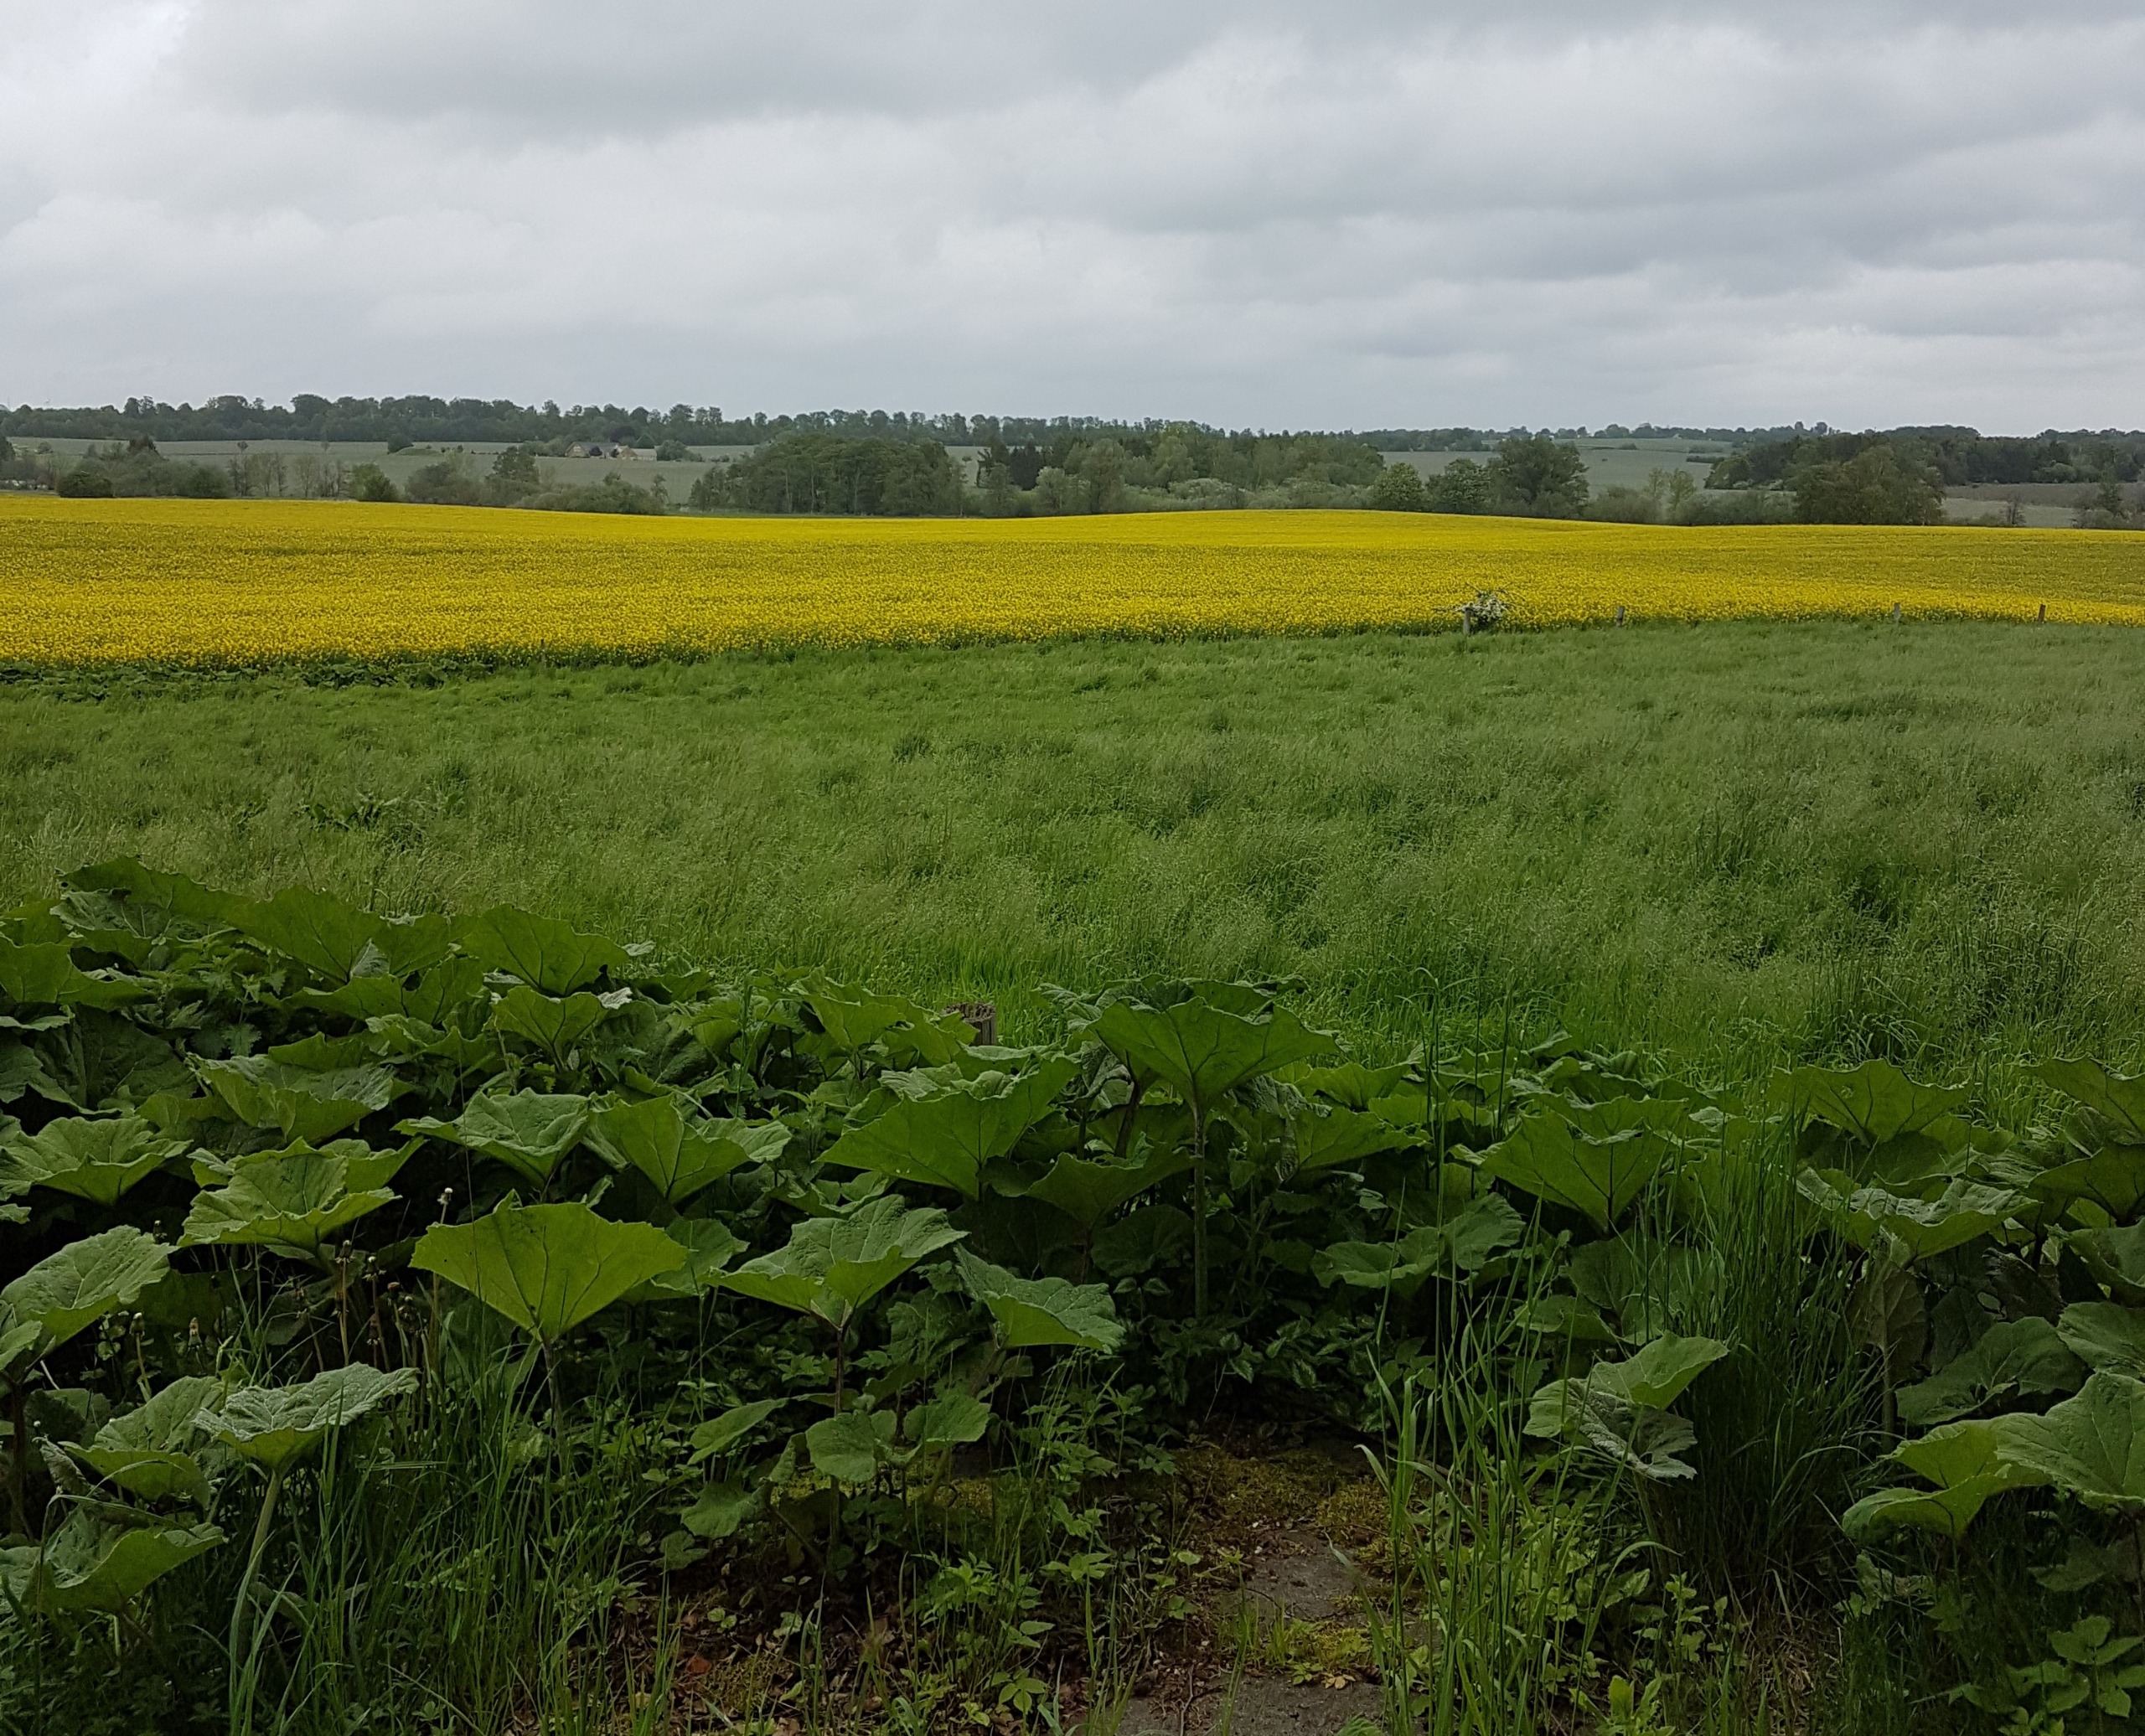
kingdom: Plantae
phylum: Tracheophyta
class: Magnoliopsida
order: Asterales
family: Asteraceae
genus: Petasites
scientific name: Petasites hybridus
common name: Rød hestehov
